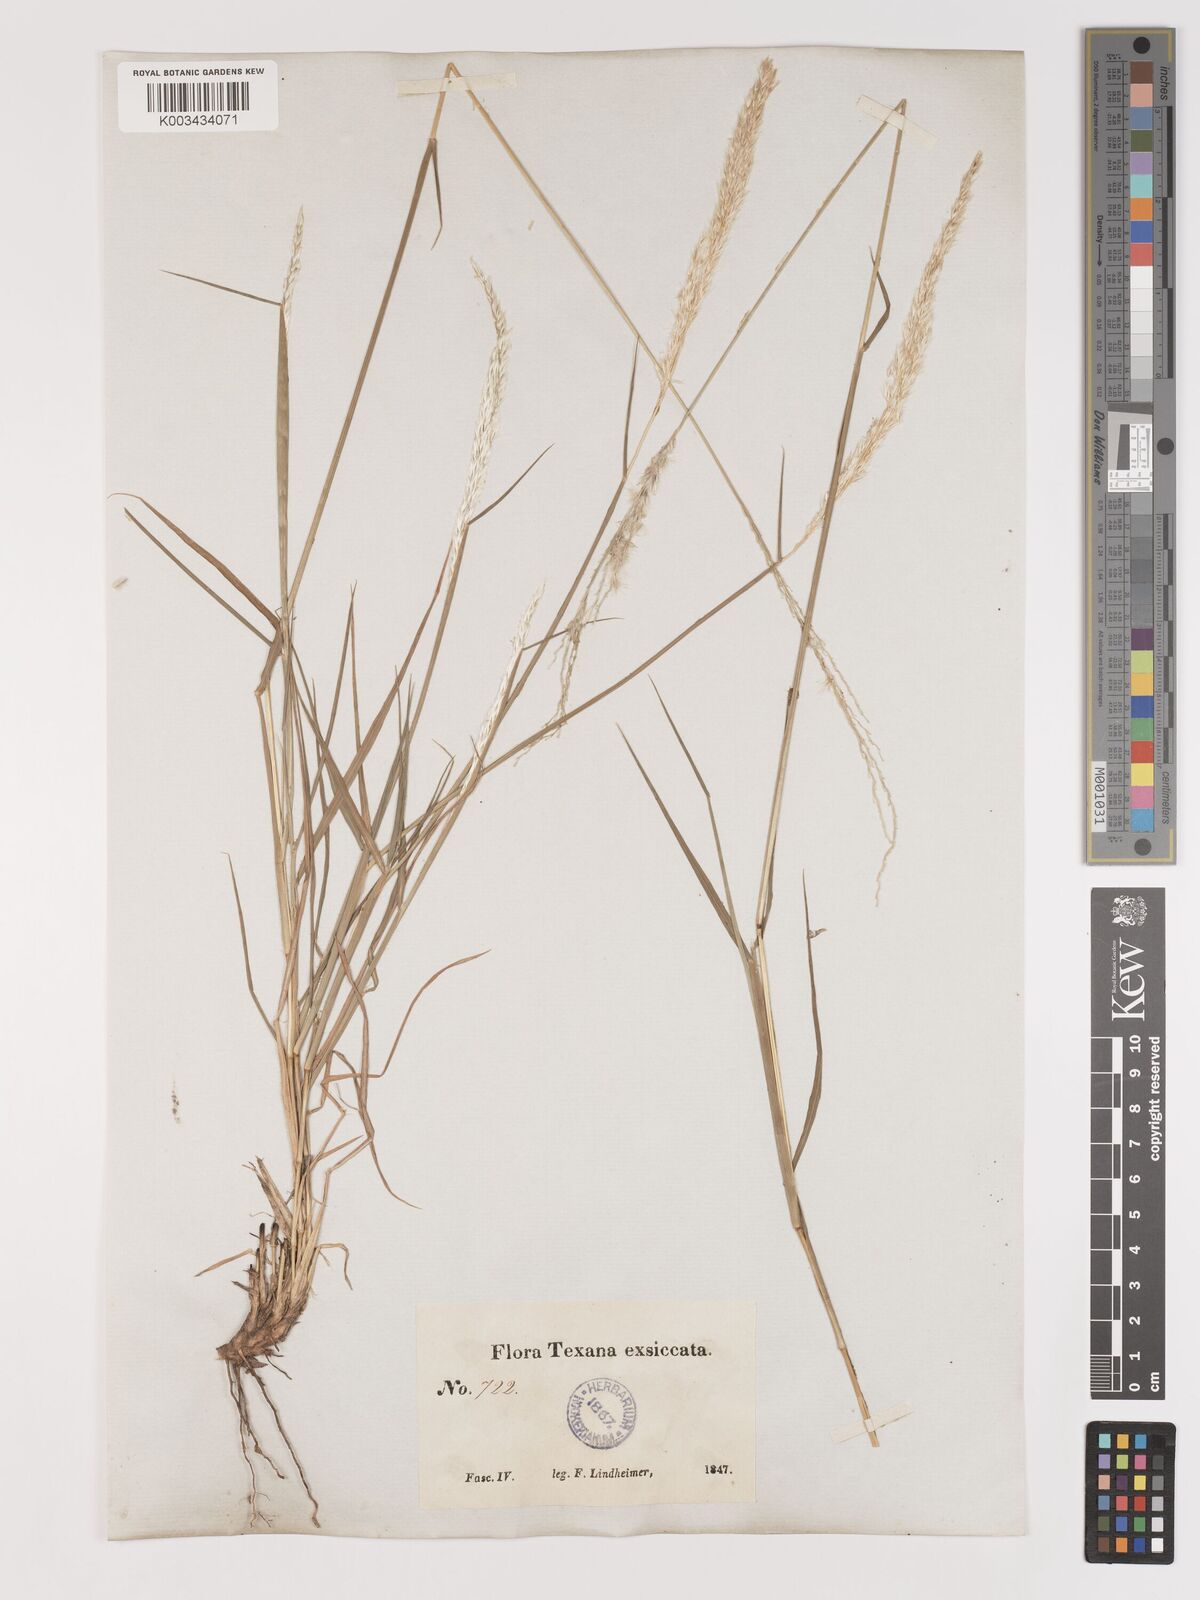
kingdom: Plantae
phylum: Tracheophyta
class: Liliopsida
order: Poales
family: Poaceae
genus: Digitaria
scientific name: Digitaria californica
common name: Arizona cottontop
